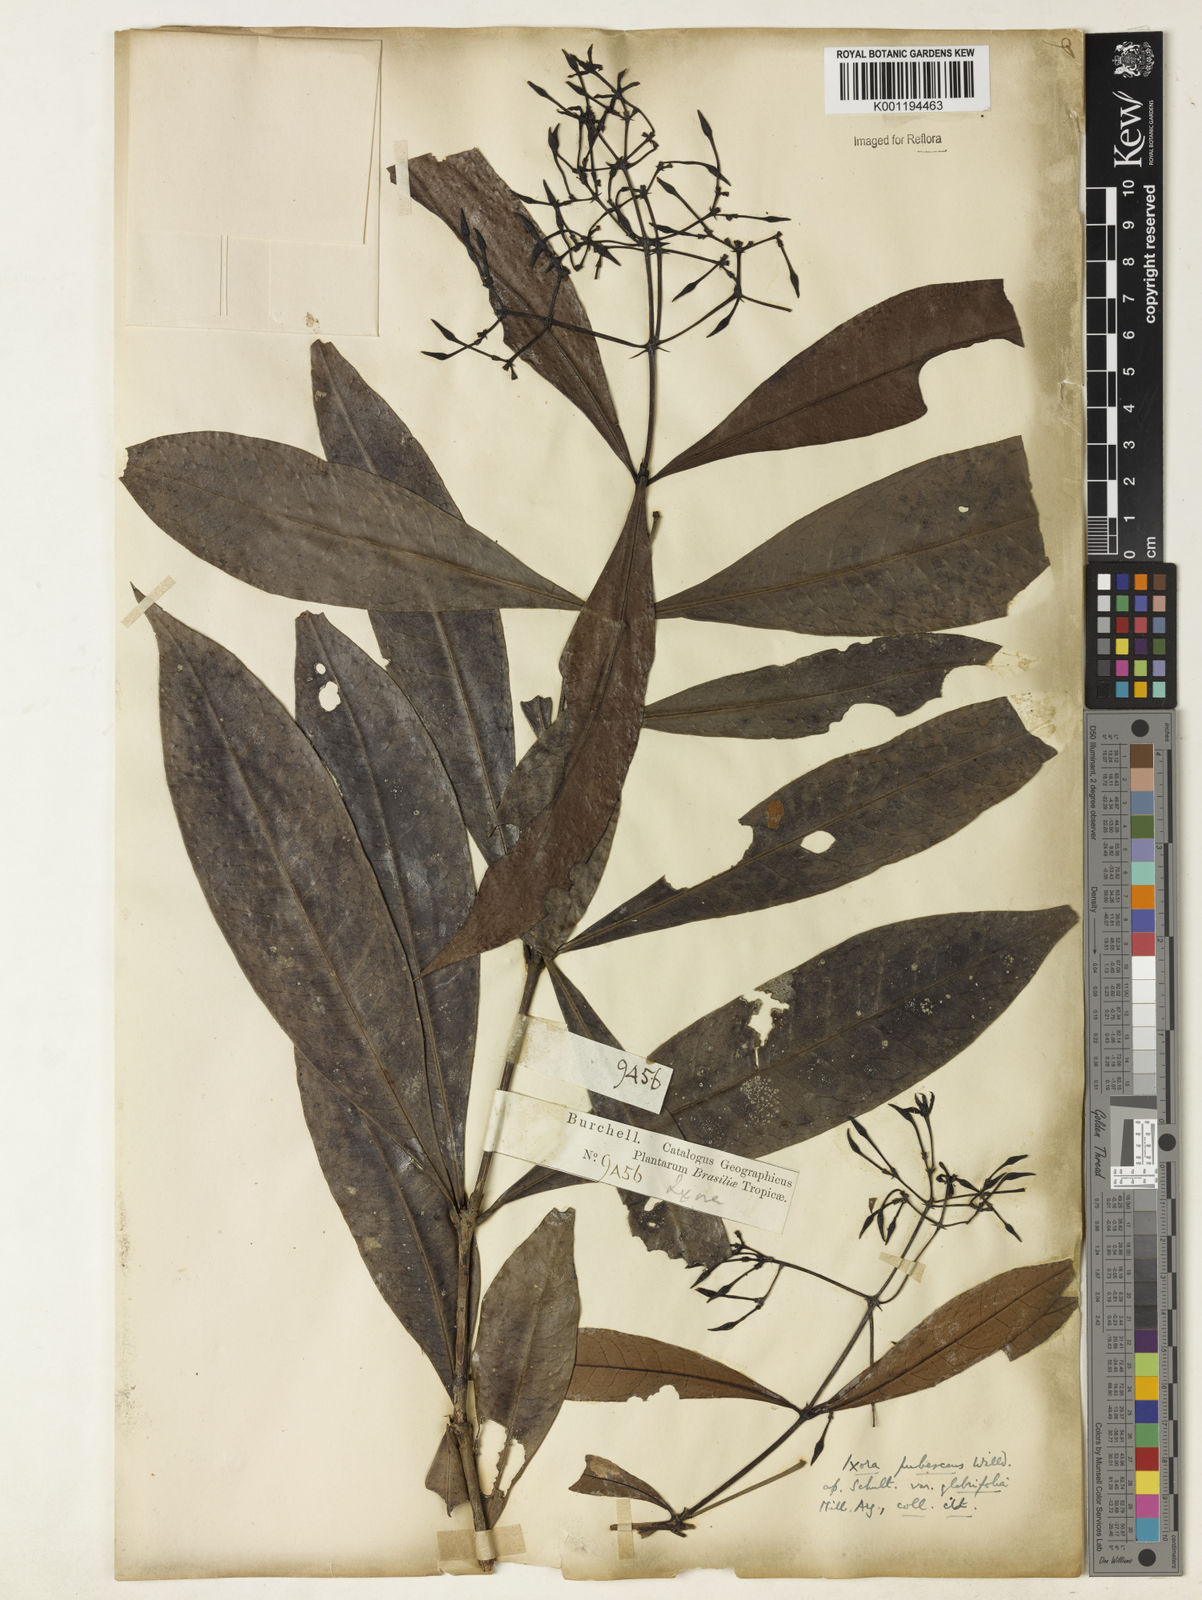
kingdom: Plantae
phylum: Tracheophyta
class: Magnoliopsida
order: Gentianales
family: Rubiaceae
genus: Ixora
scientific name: Ixora
